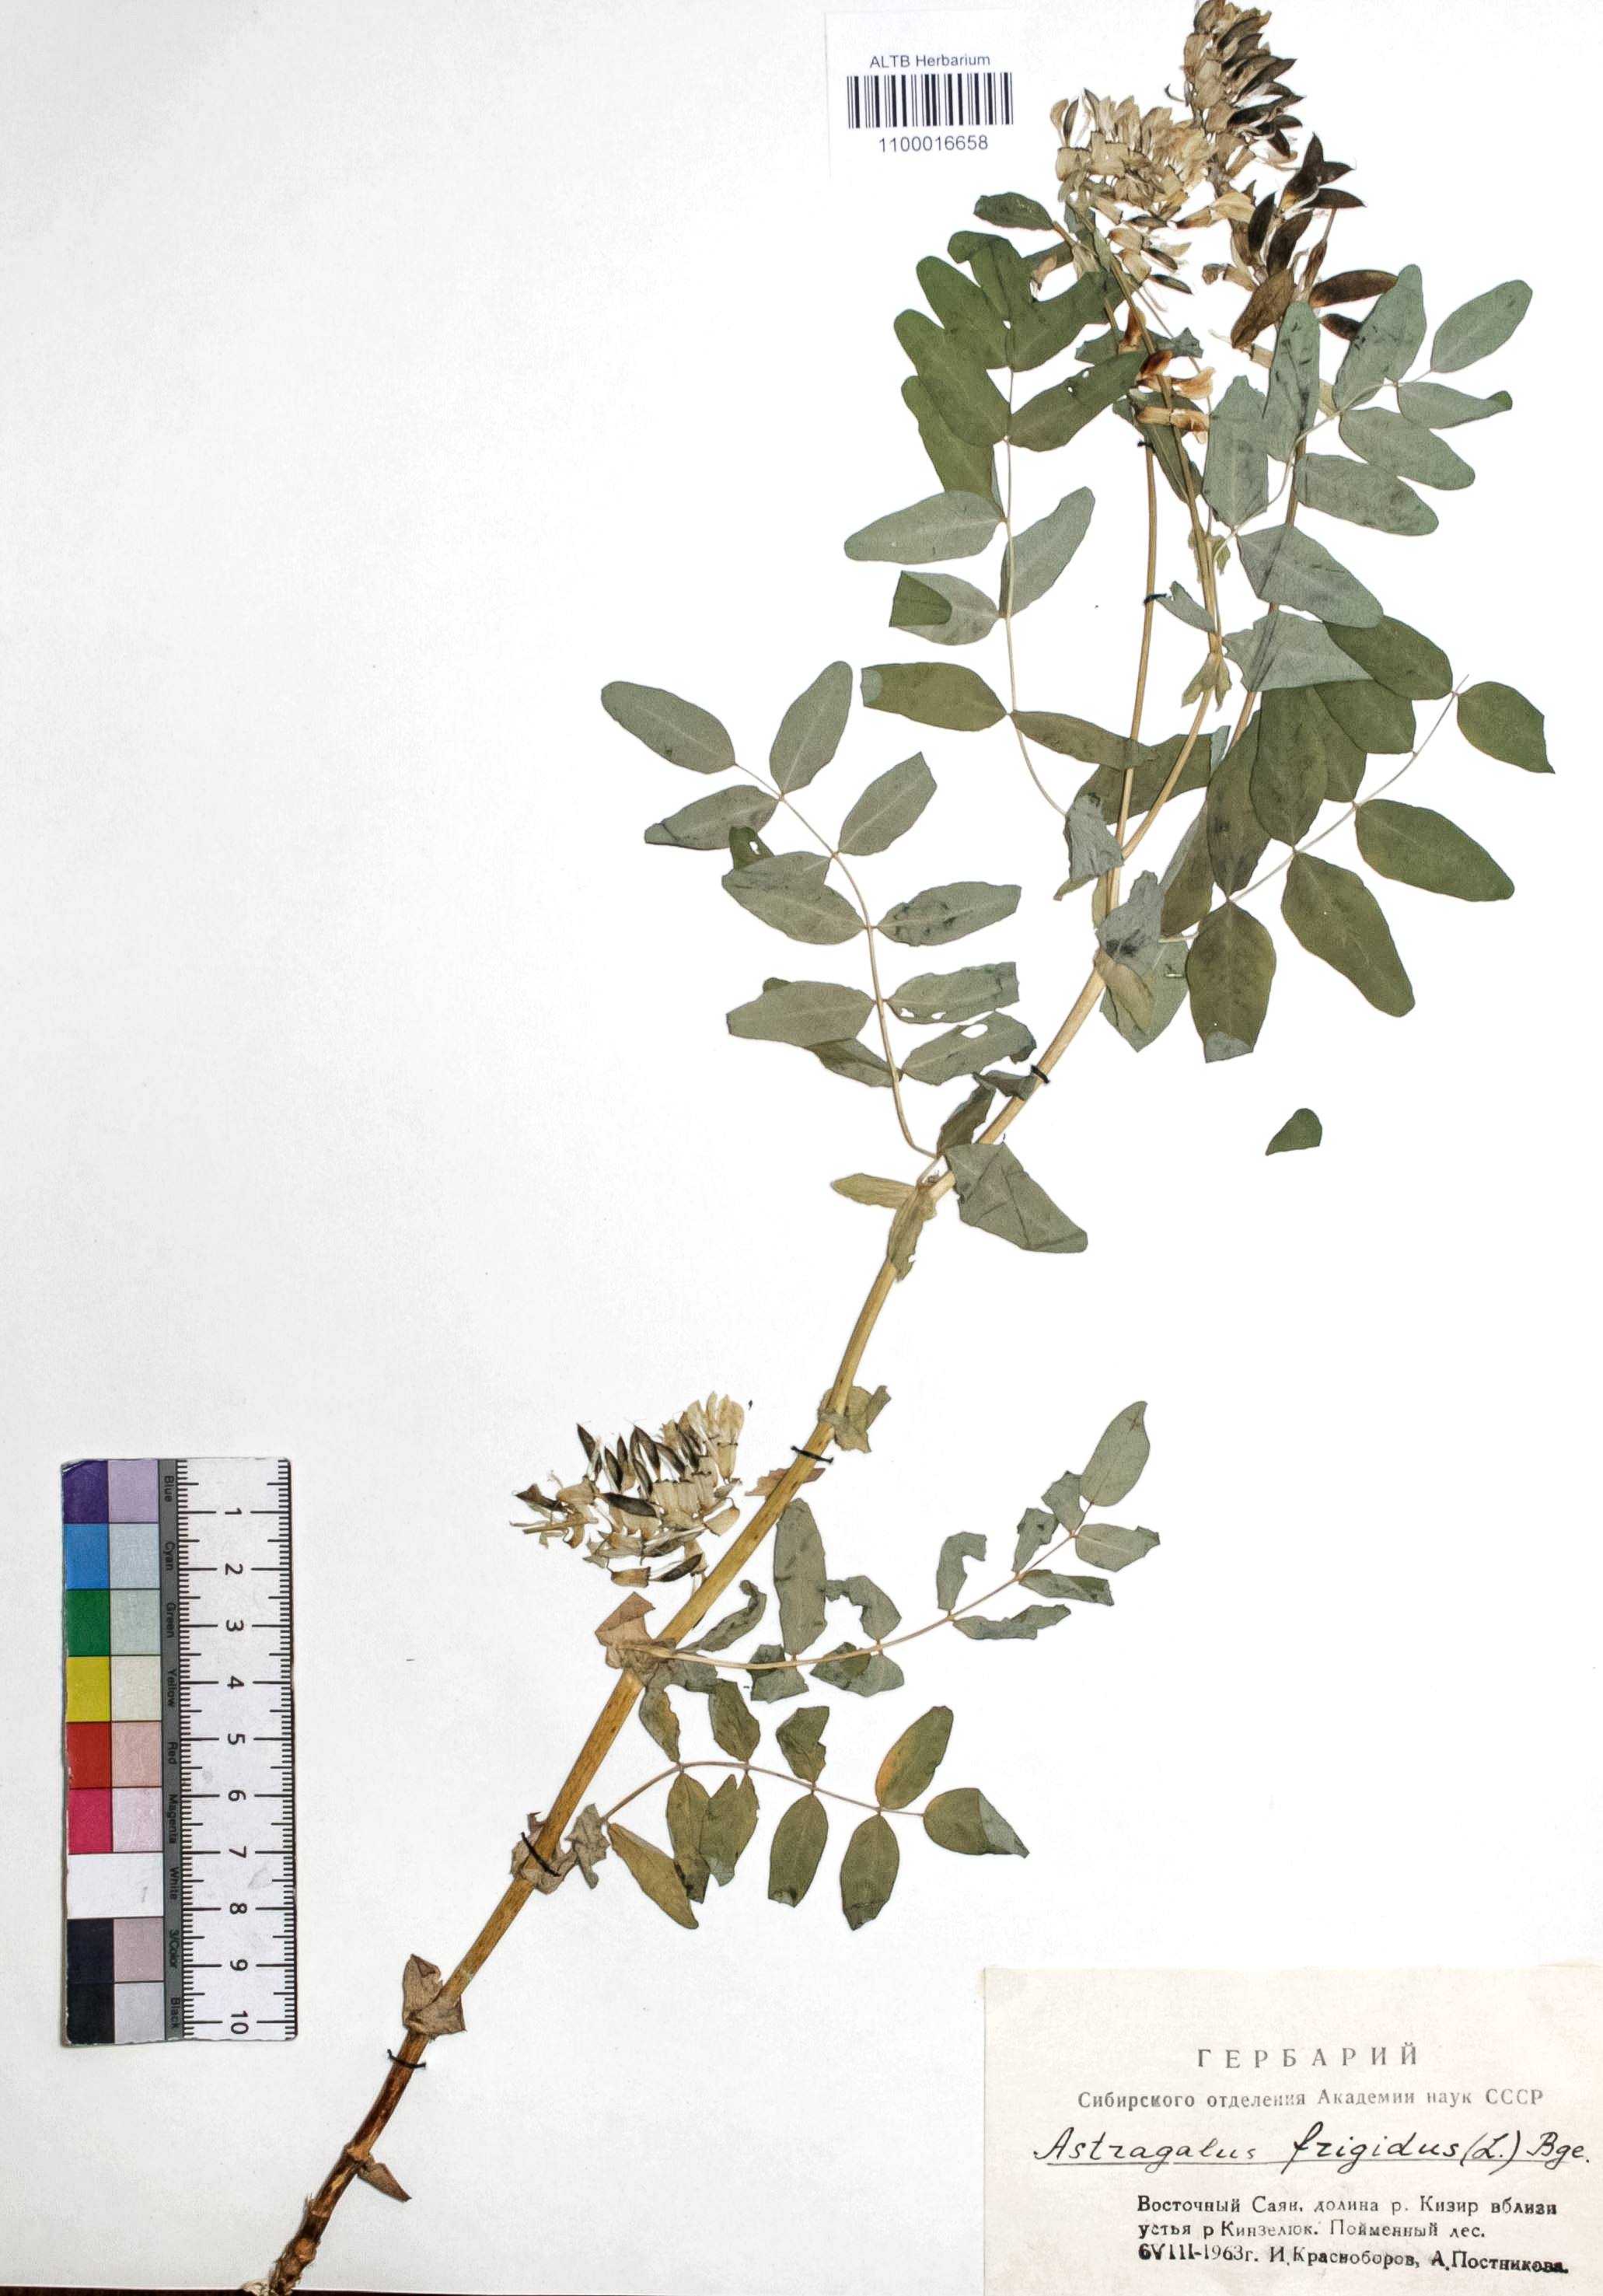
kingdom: Plantae
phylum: Tracheophyta
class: Magnoliopsida
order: Fabales
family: Fabaceae
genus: Astragalus
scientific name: Astragalus frigidus
